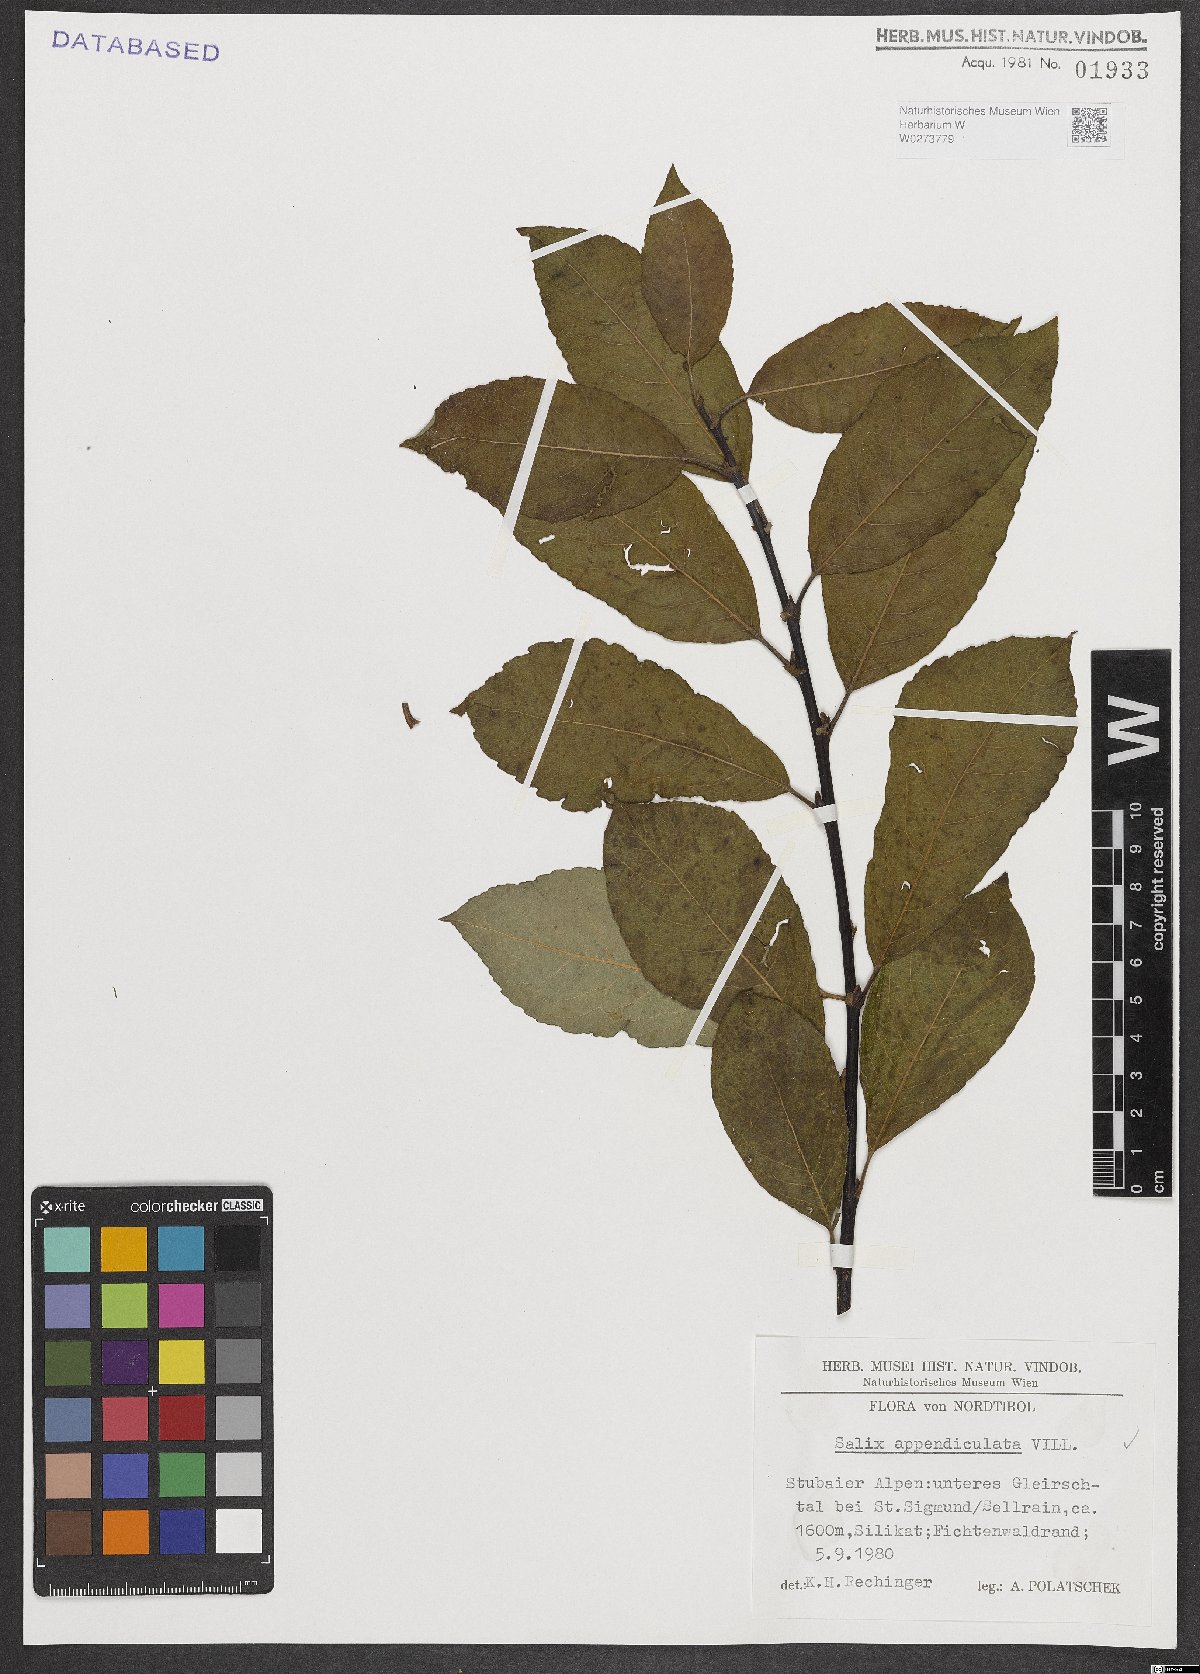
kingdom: Plantae
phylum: Tracheophyta
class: Magnoliopsida
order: Malpighiales
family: Salicaceae
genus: Salix
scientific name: Salix appendiculata
